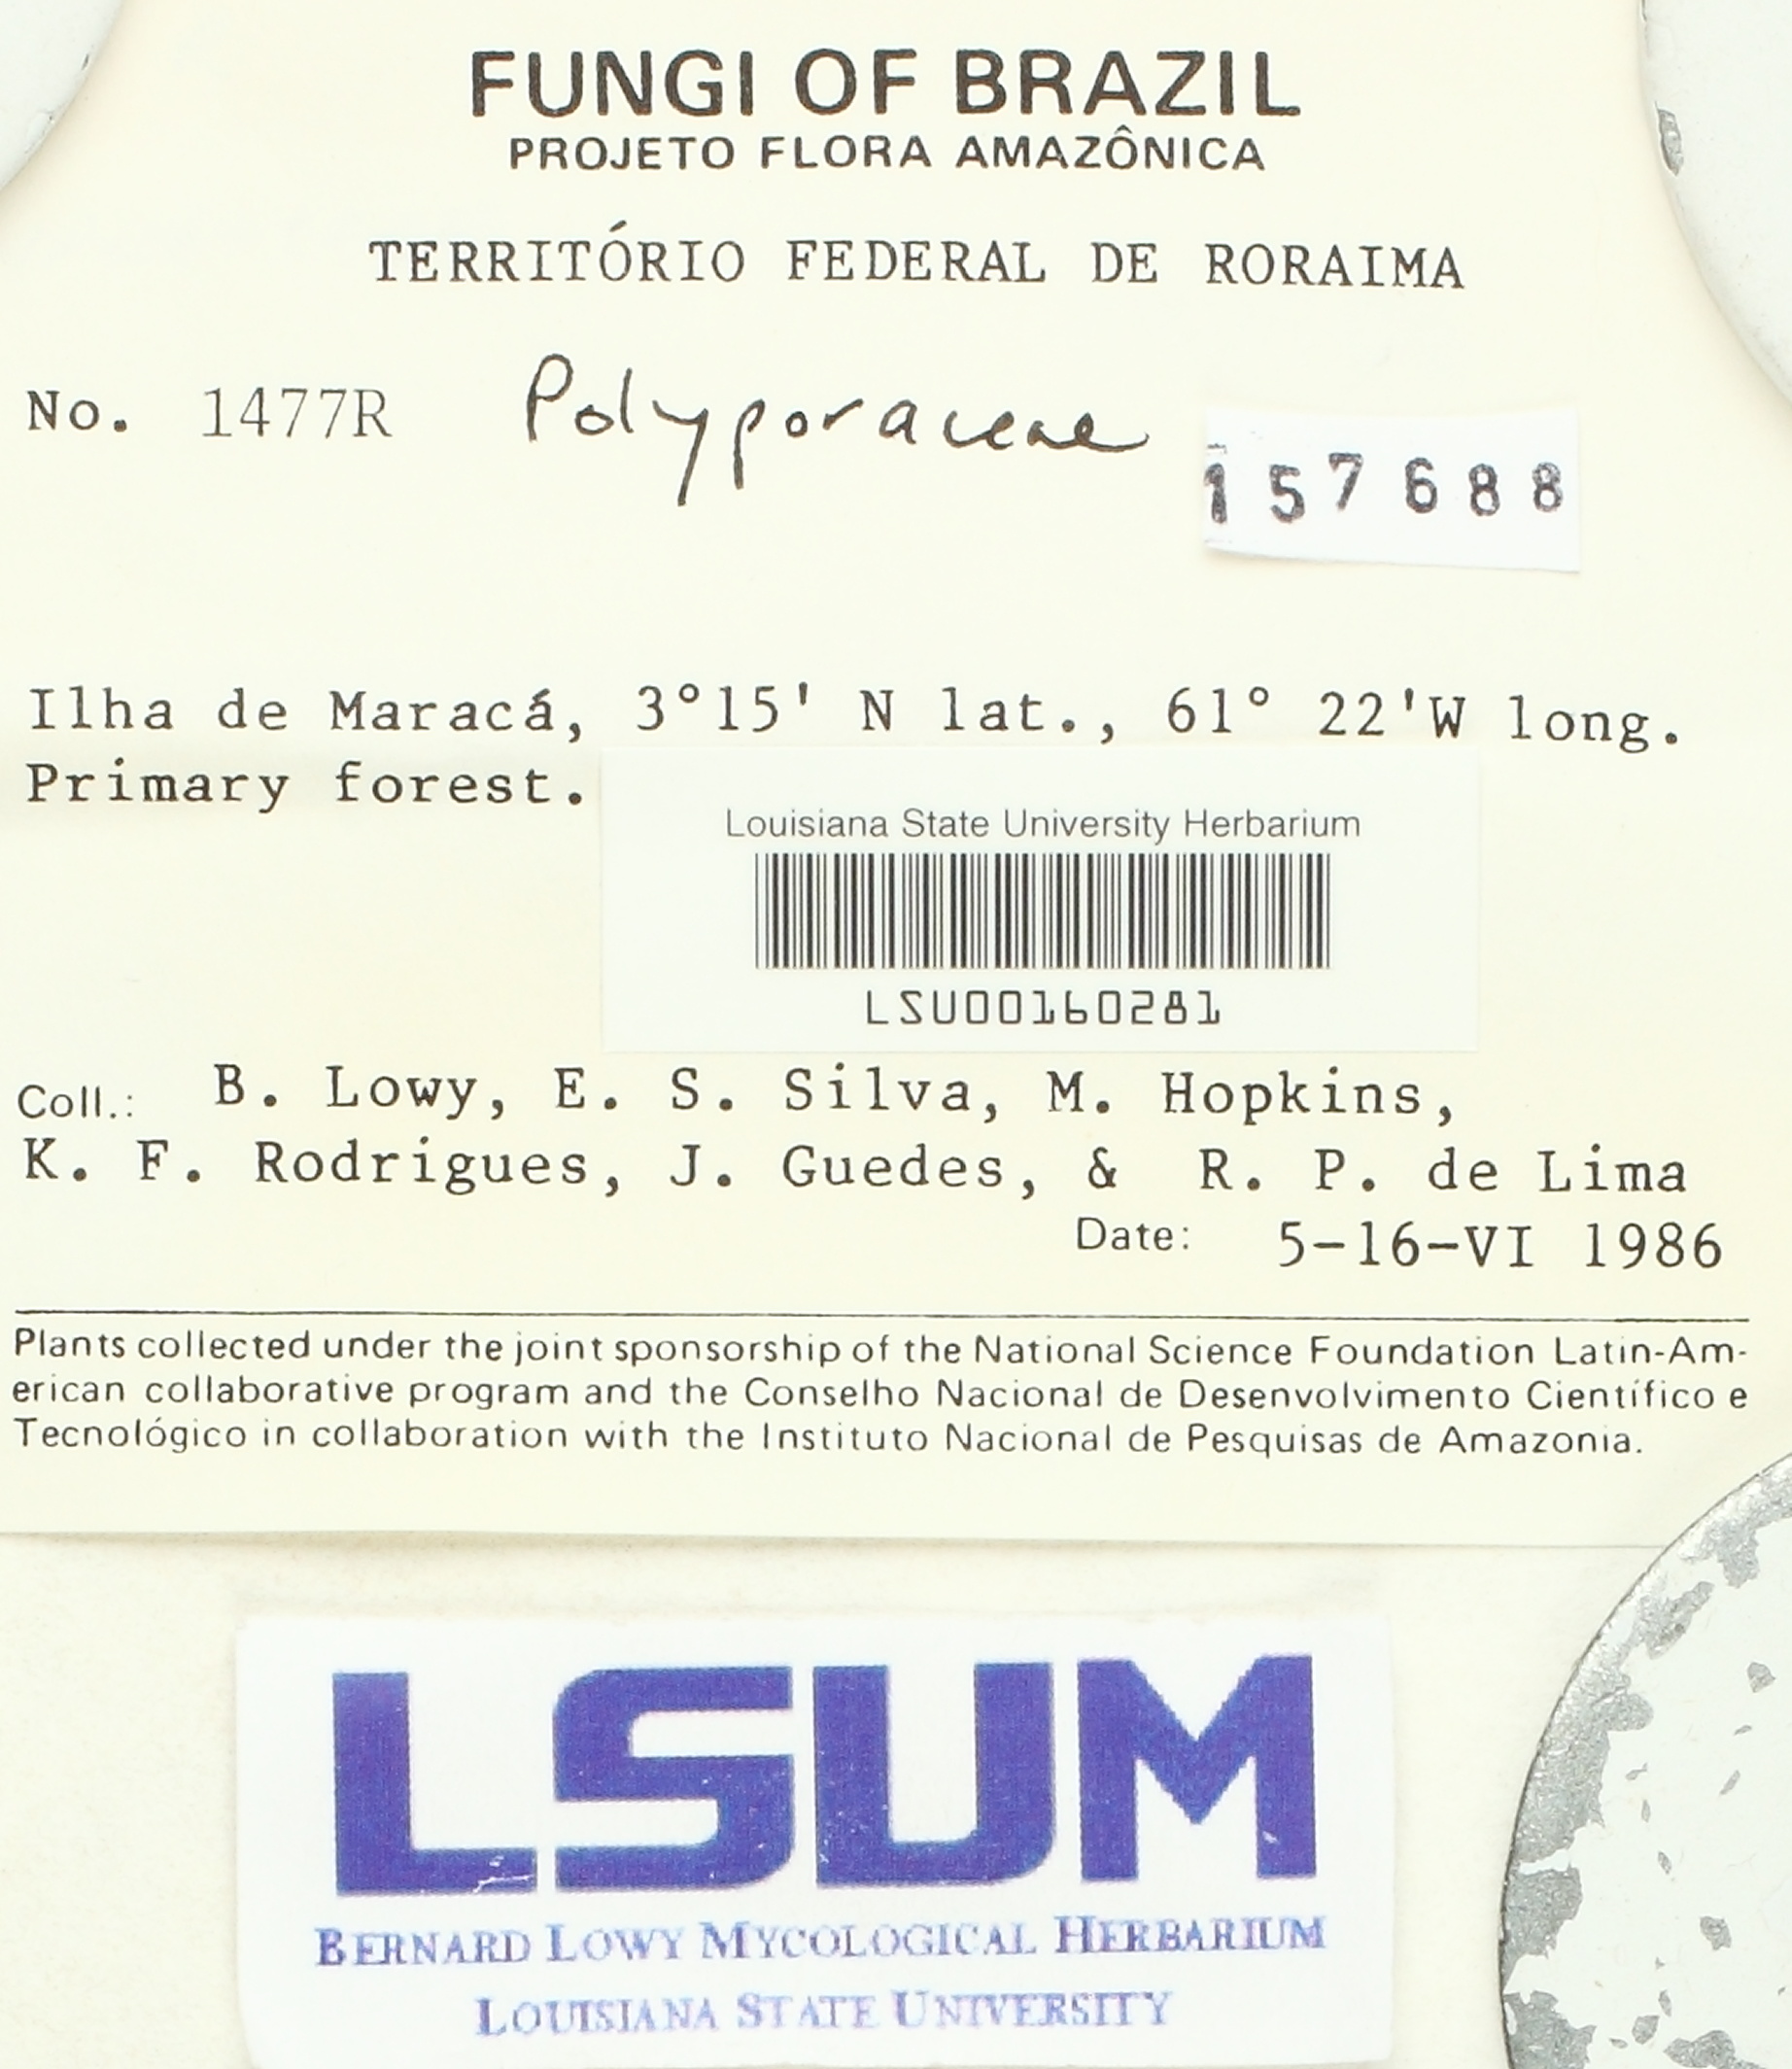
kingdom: Fungi
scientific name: Fungi
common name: Fungi
